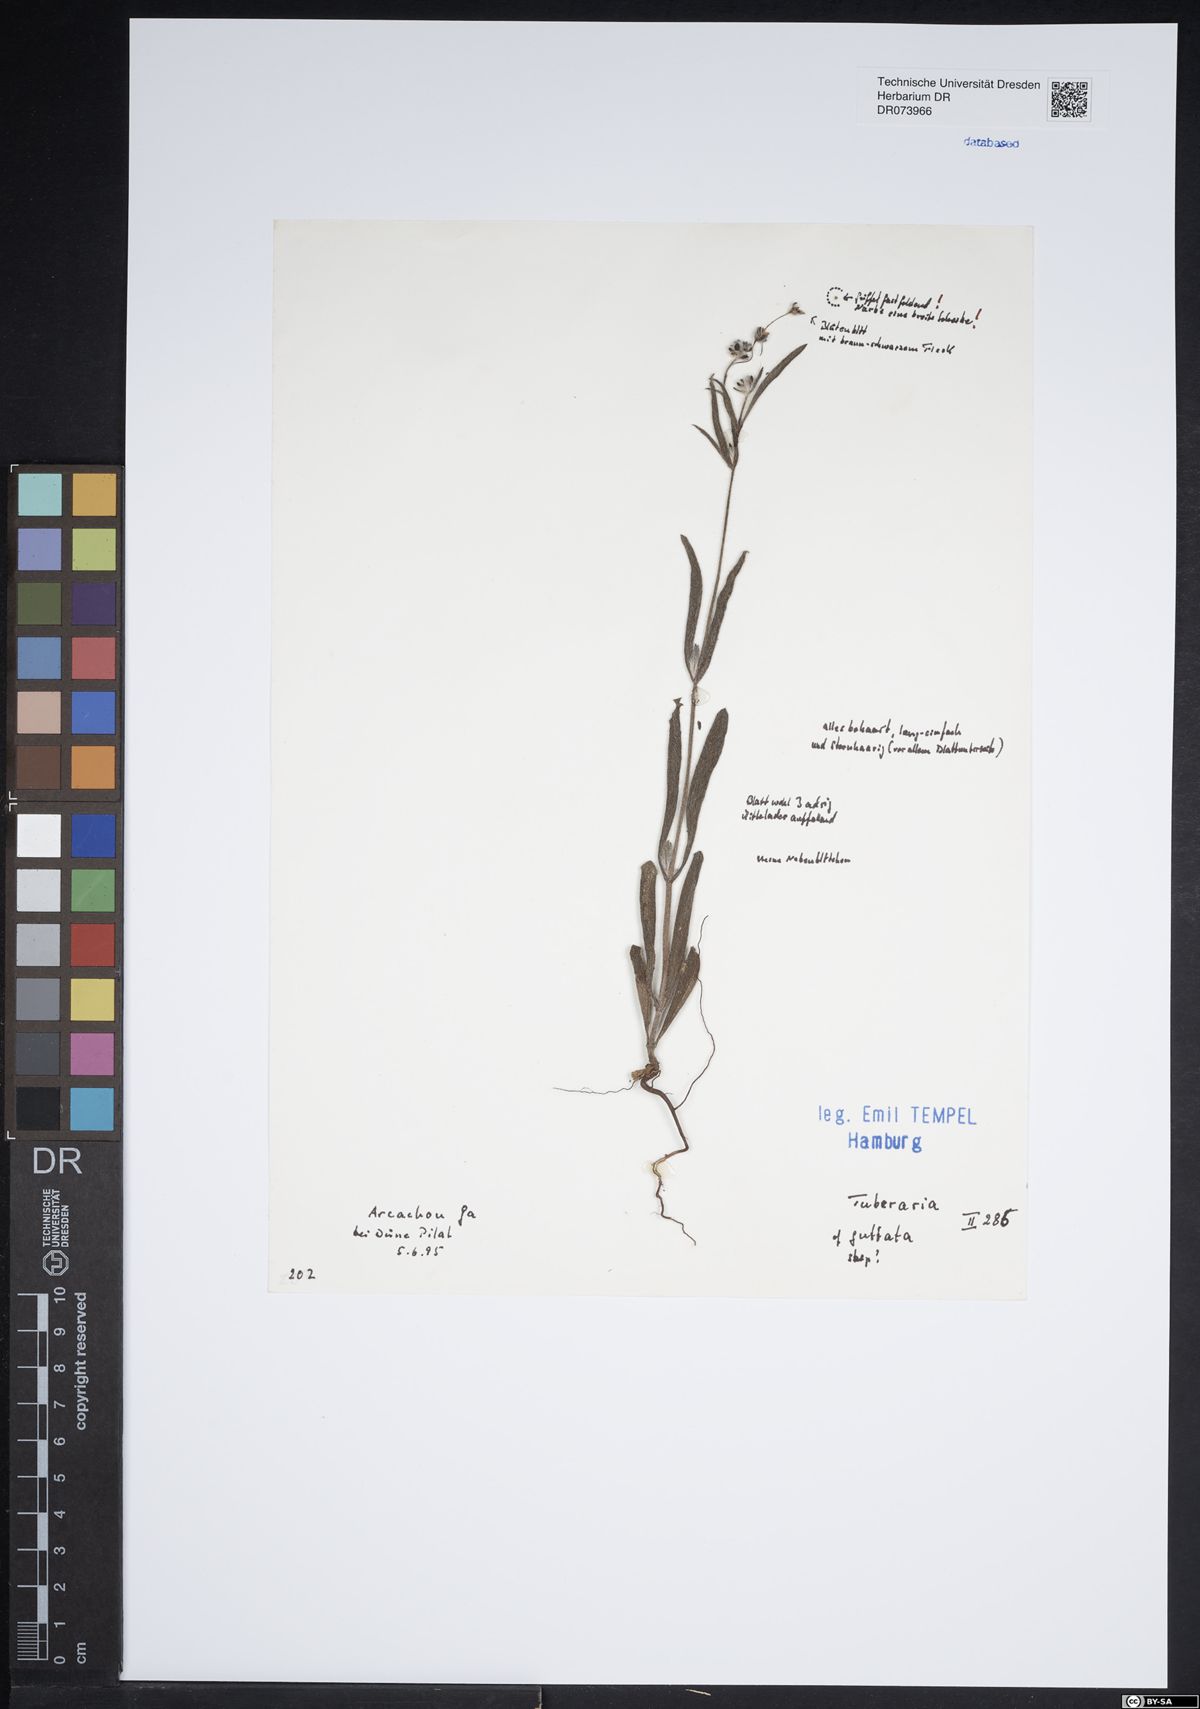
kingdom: Plantae
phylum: Tracheophyta
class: Magnoliopsida
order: Malvales
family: Cistaceae
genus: Tuberaria
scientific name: Tuberaria guttata
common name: Spotted rock-rose
